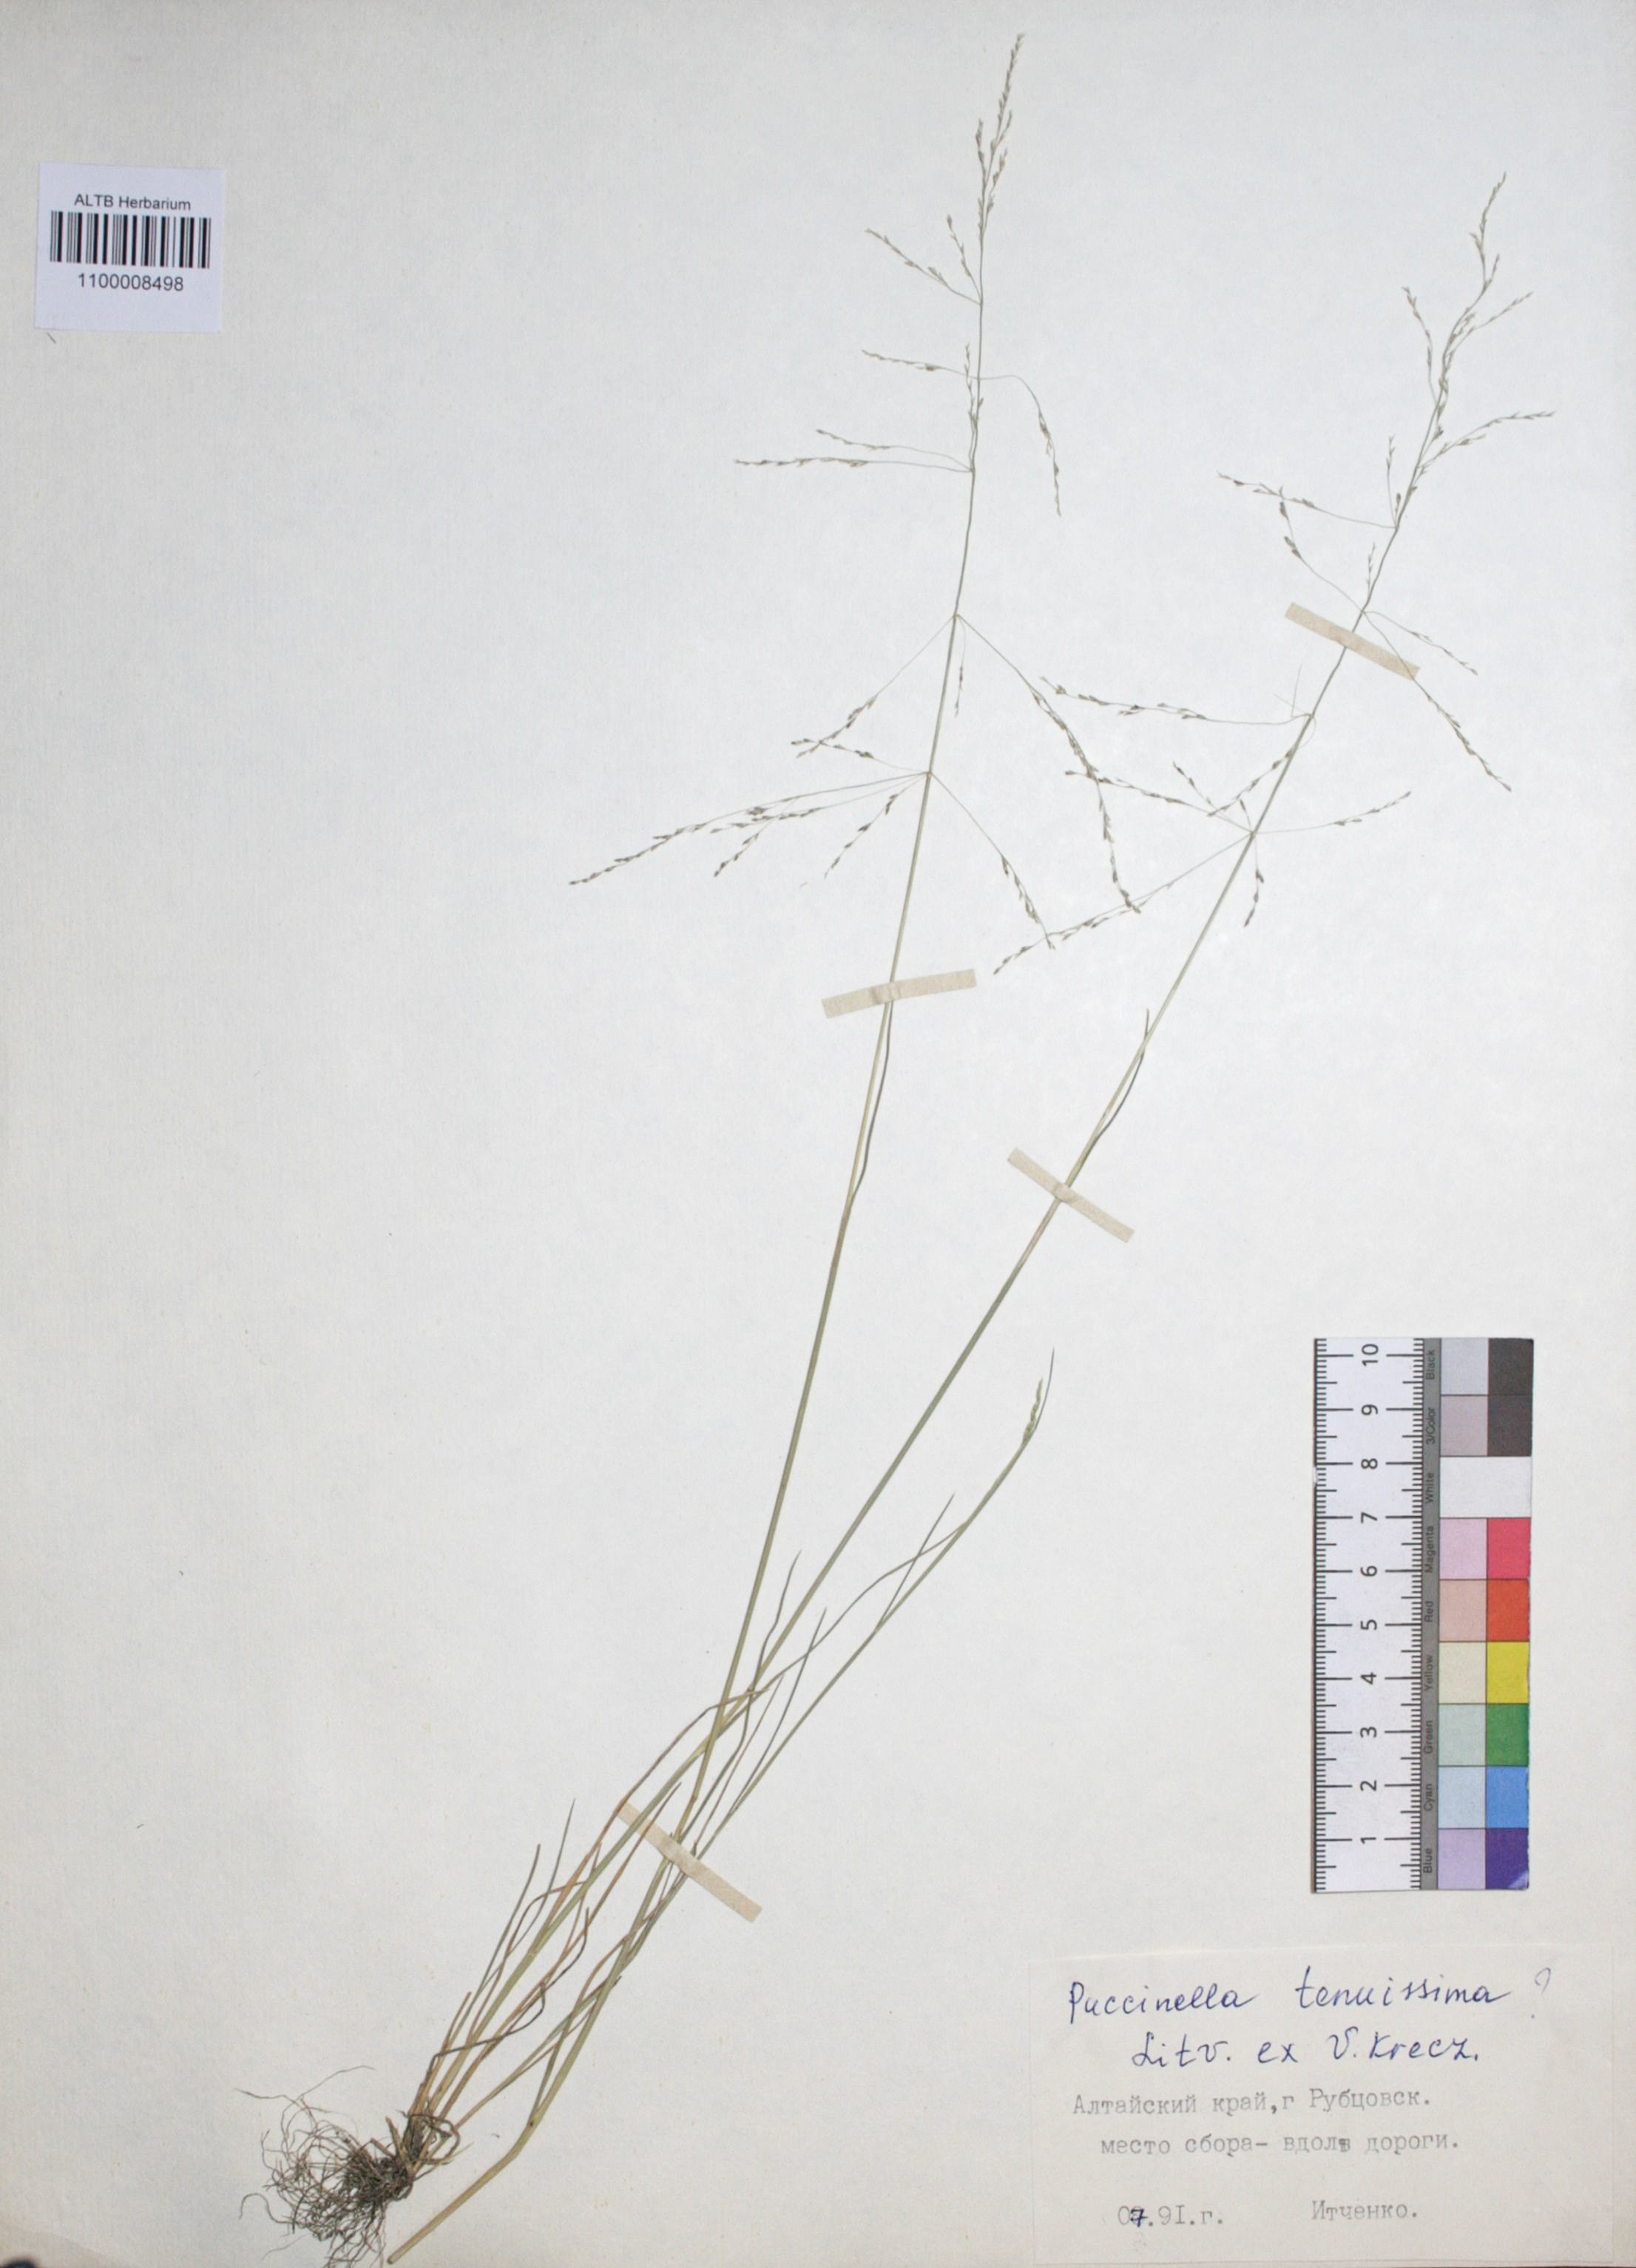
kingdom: Plantae
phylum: Tracheophyta
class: Liliopsida
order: Poales
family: Poaceae
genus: Puccinellia
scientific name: Puccinellia tenuiflora
